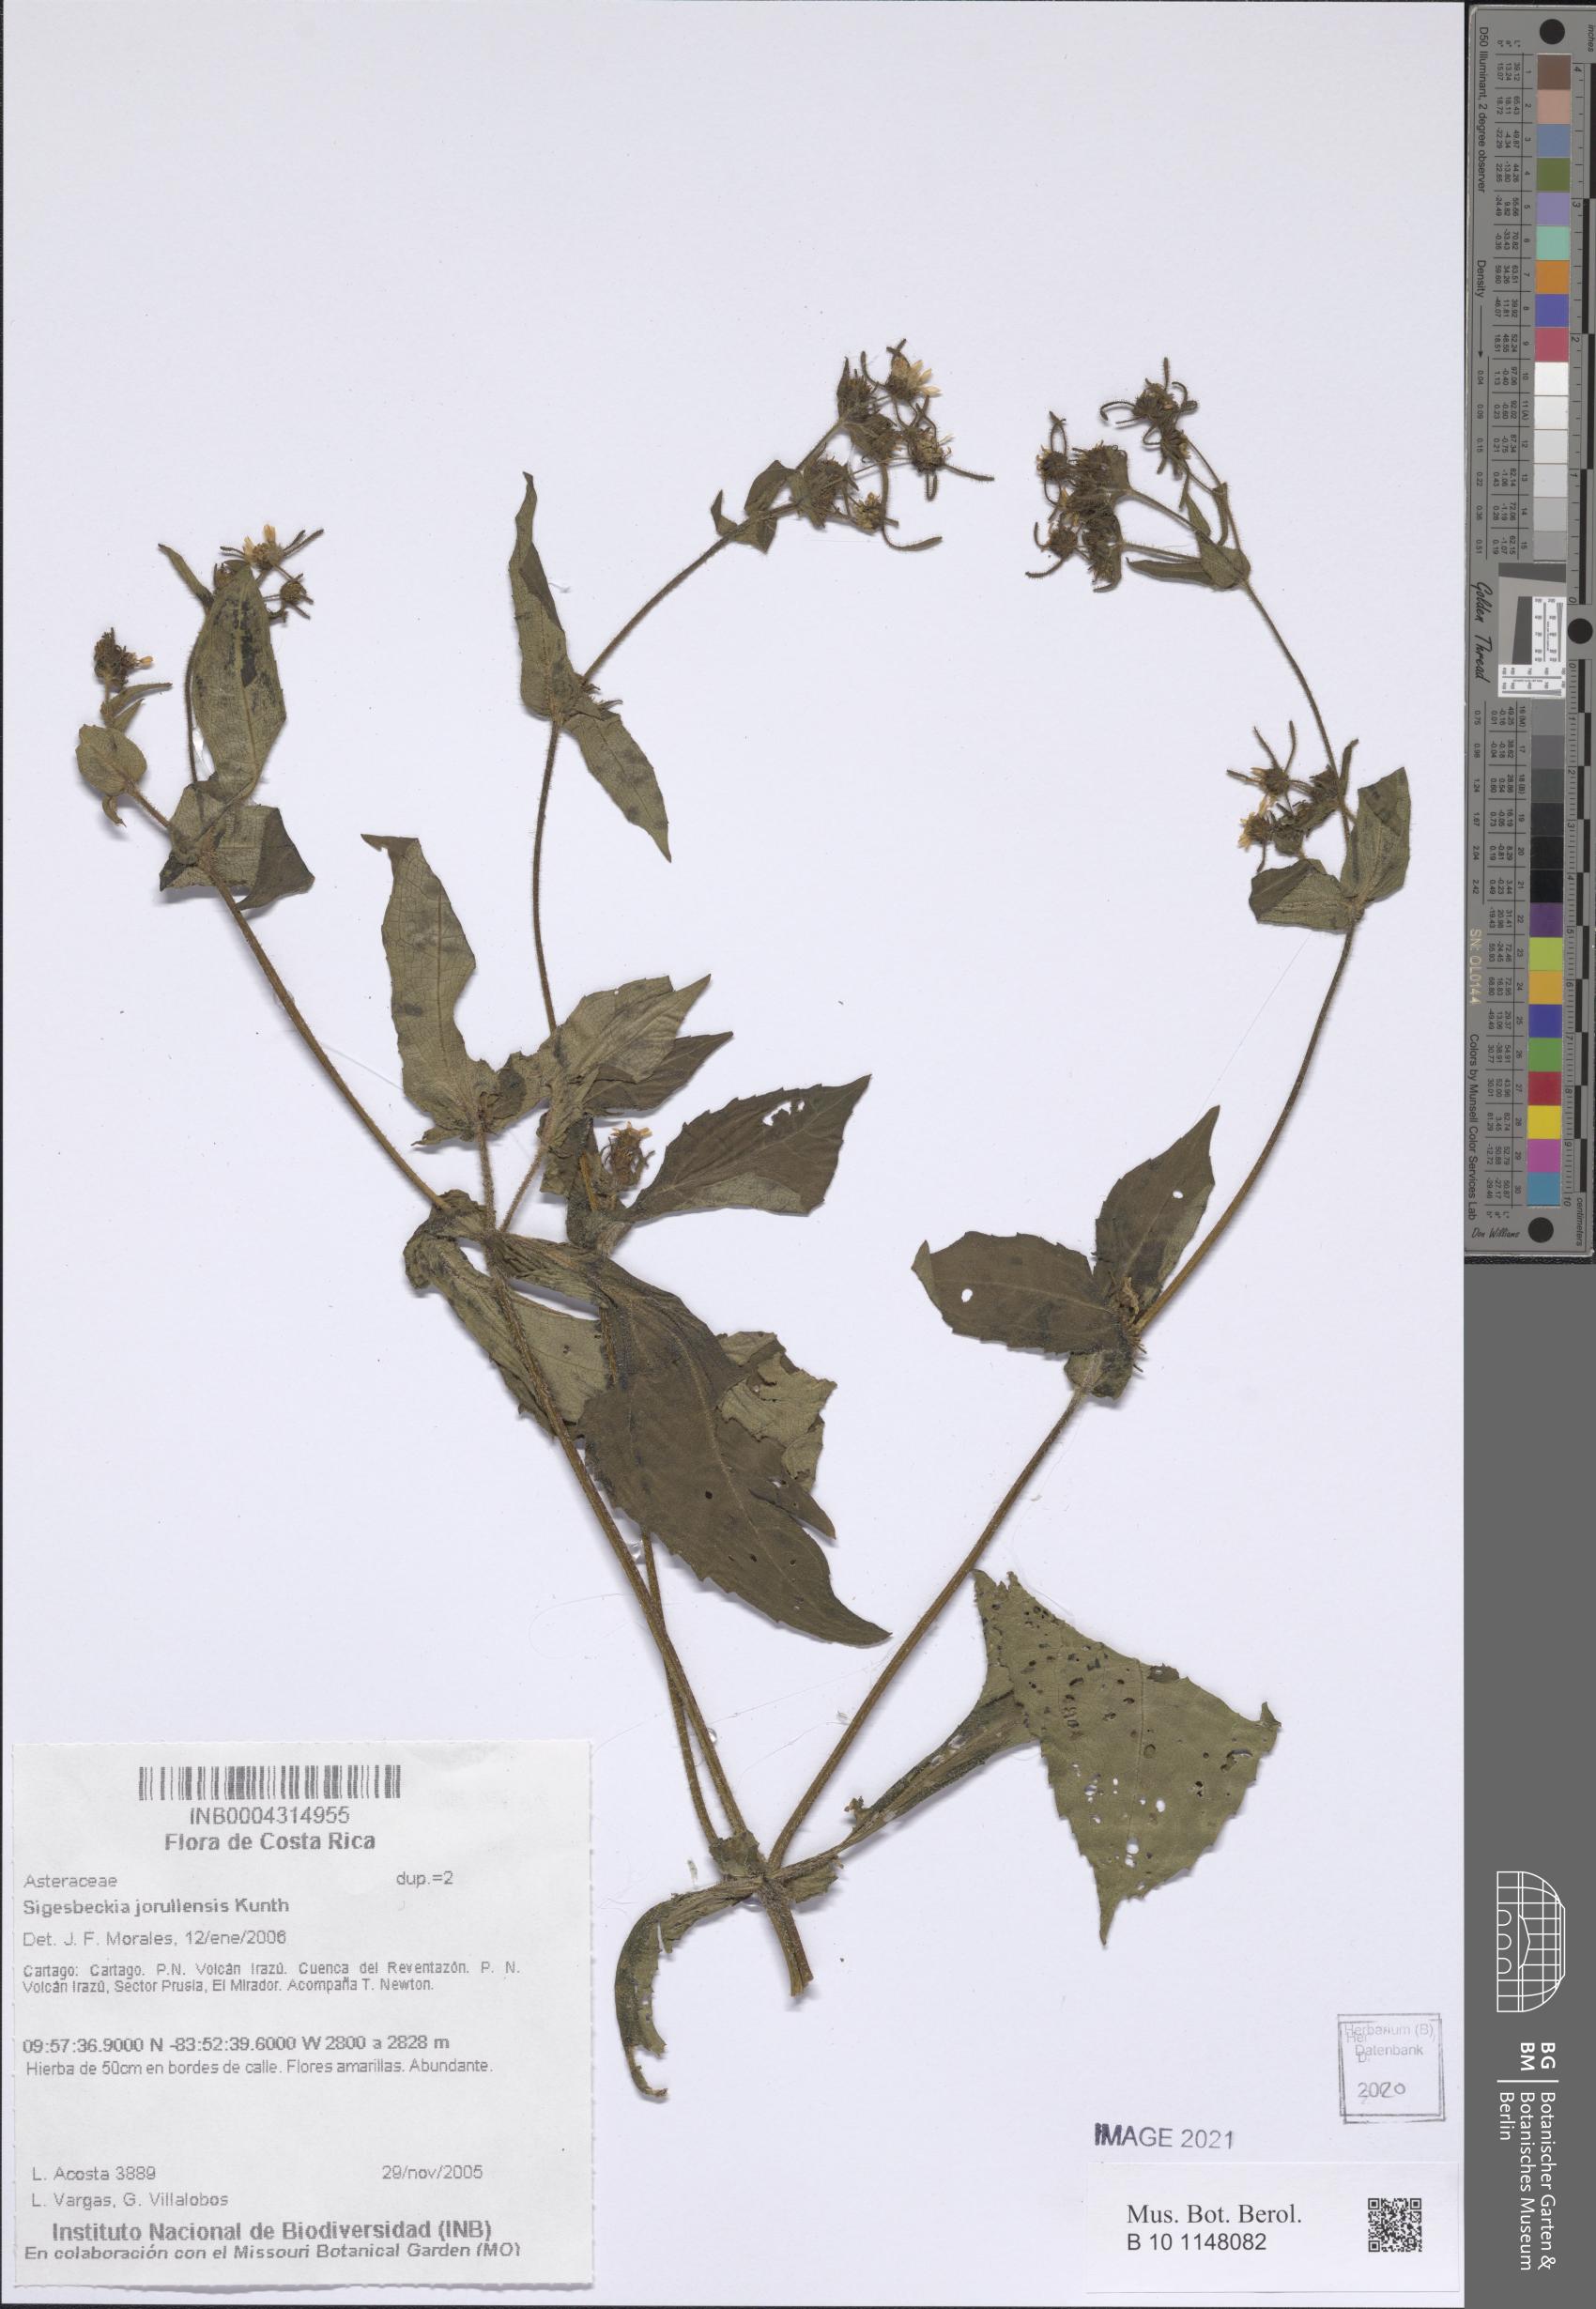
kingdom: Plantae
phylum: Tracheophyta
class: Magnoliopsida
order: Asterales
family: Asteraceae
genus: Sigesbeckia
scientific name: Sigesbeckia jorullensis
